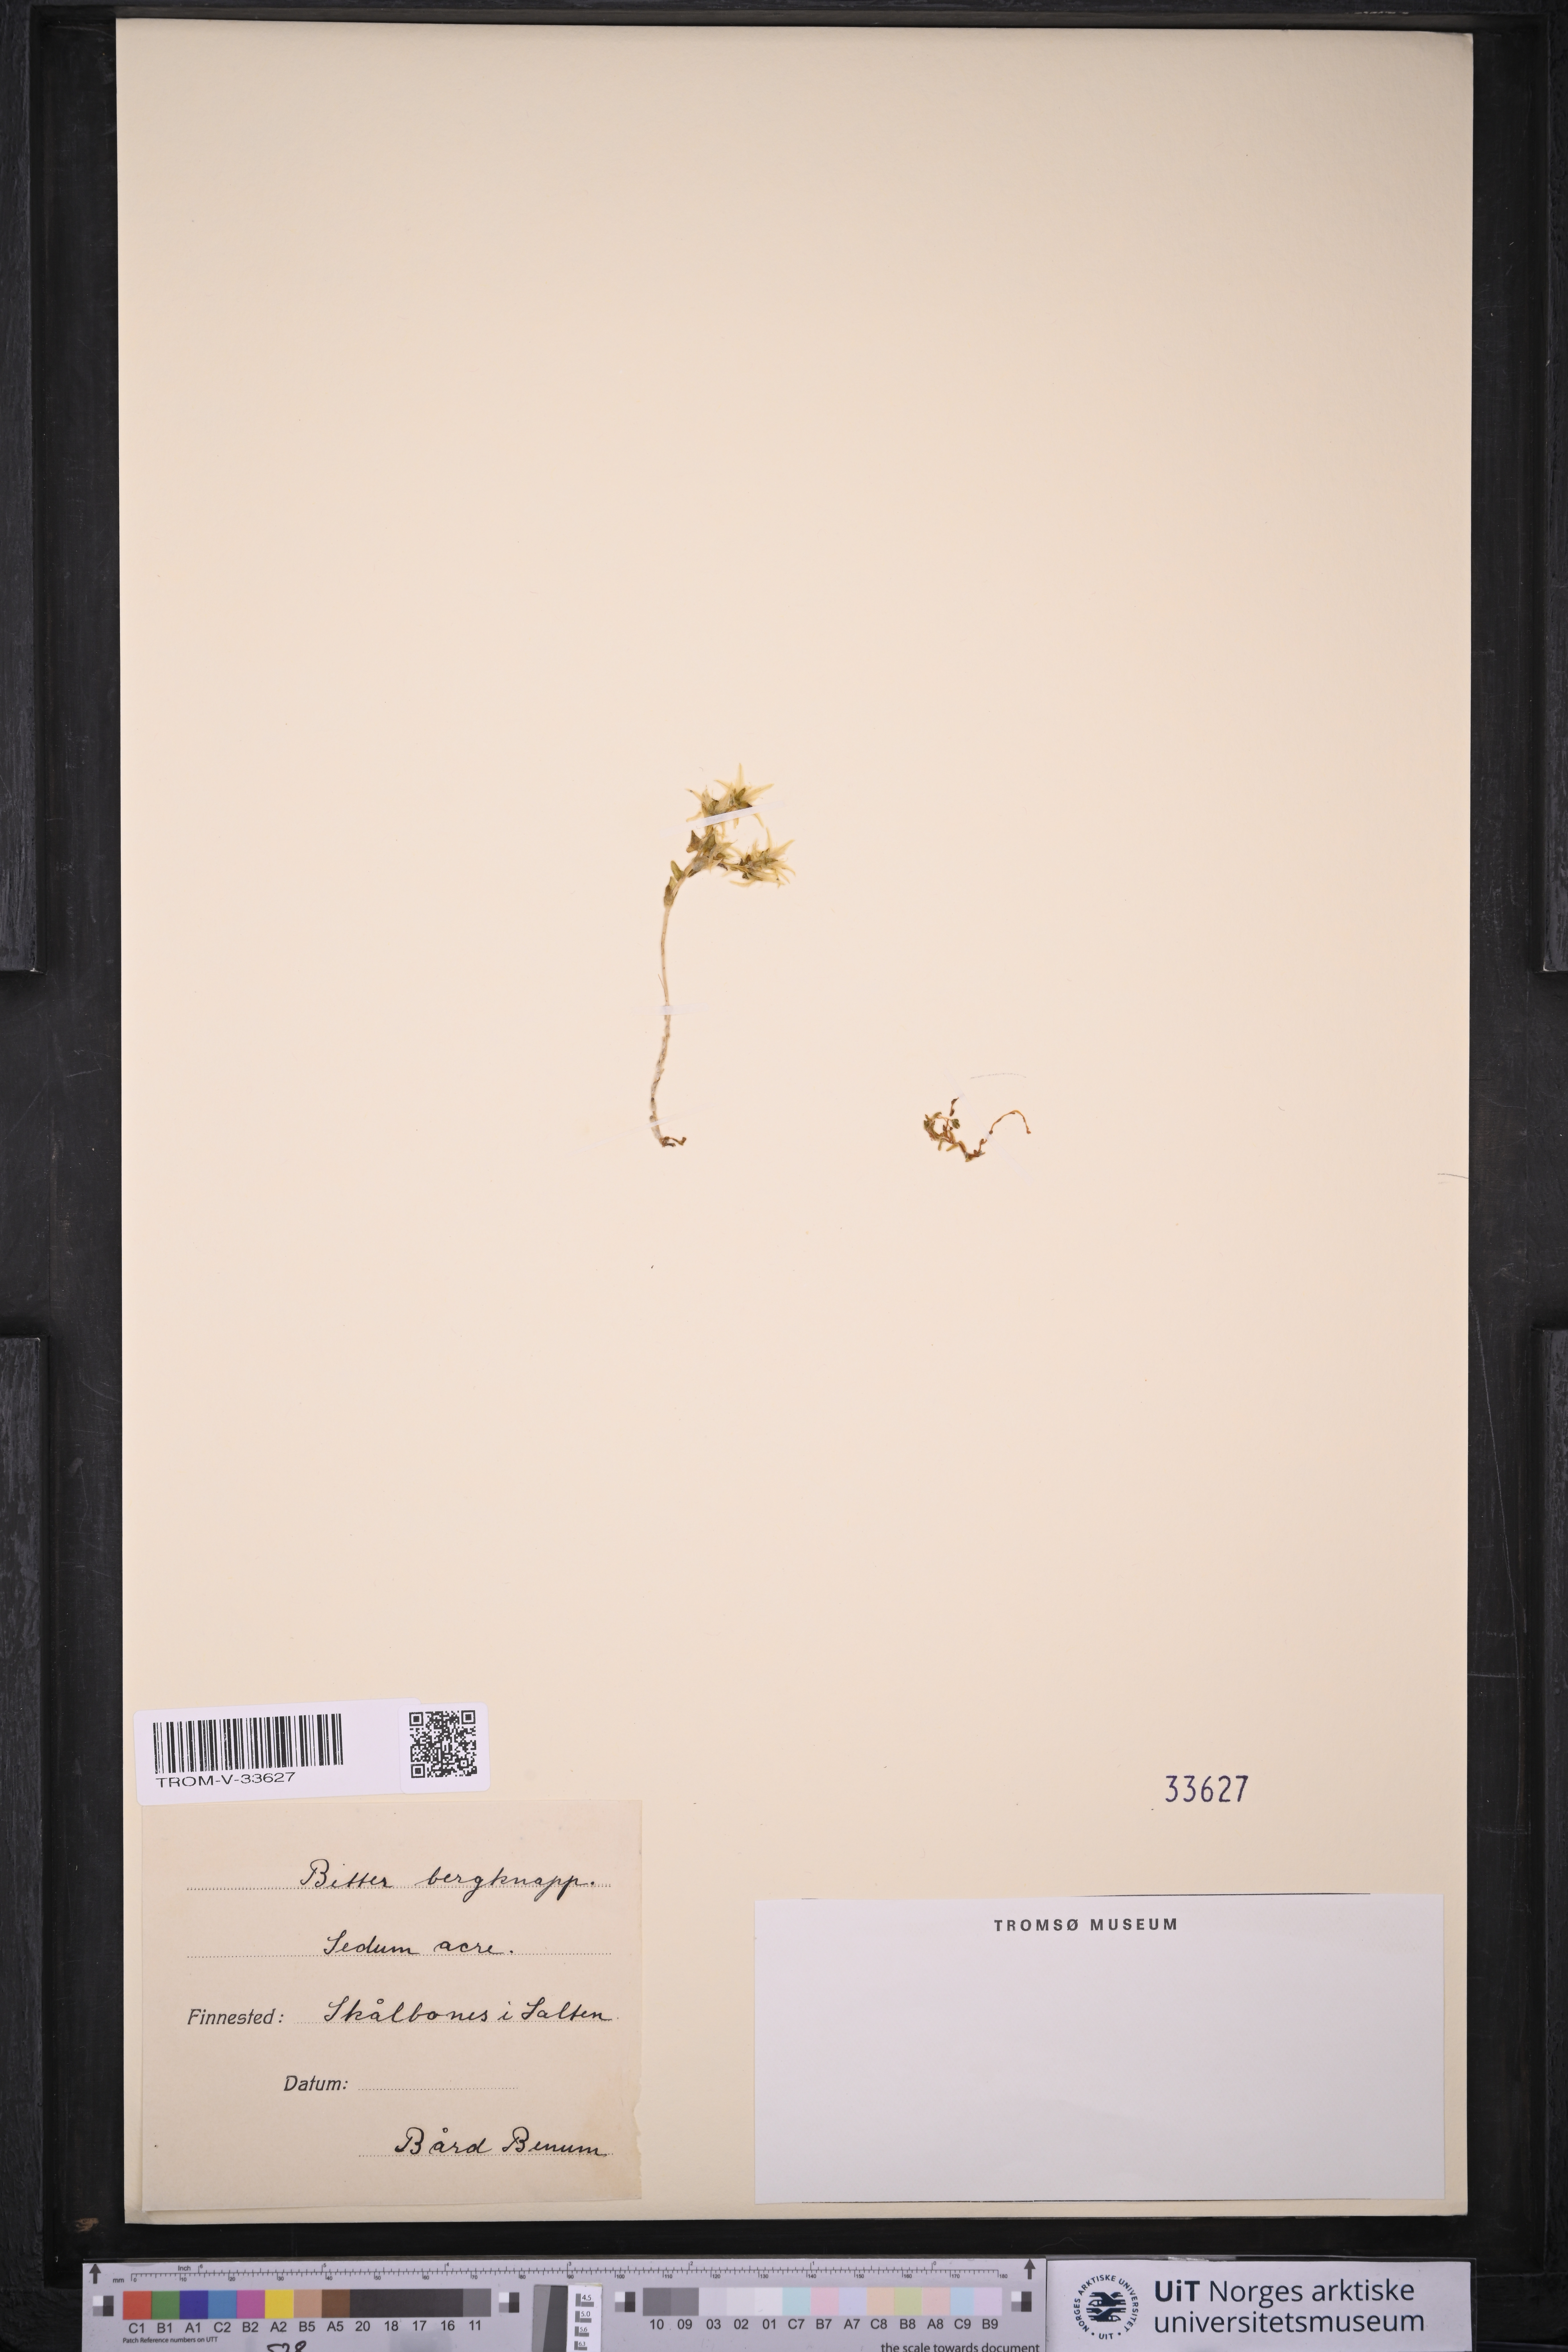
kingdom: Plantae
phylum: Tracheophyta
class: Magnoliopsida
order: Saxifragales
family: Crassulaceae
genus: Sedum
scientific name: Sedum acre
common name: Biting stonecrop
